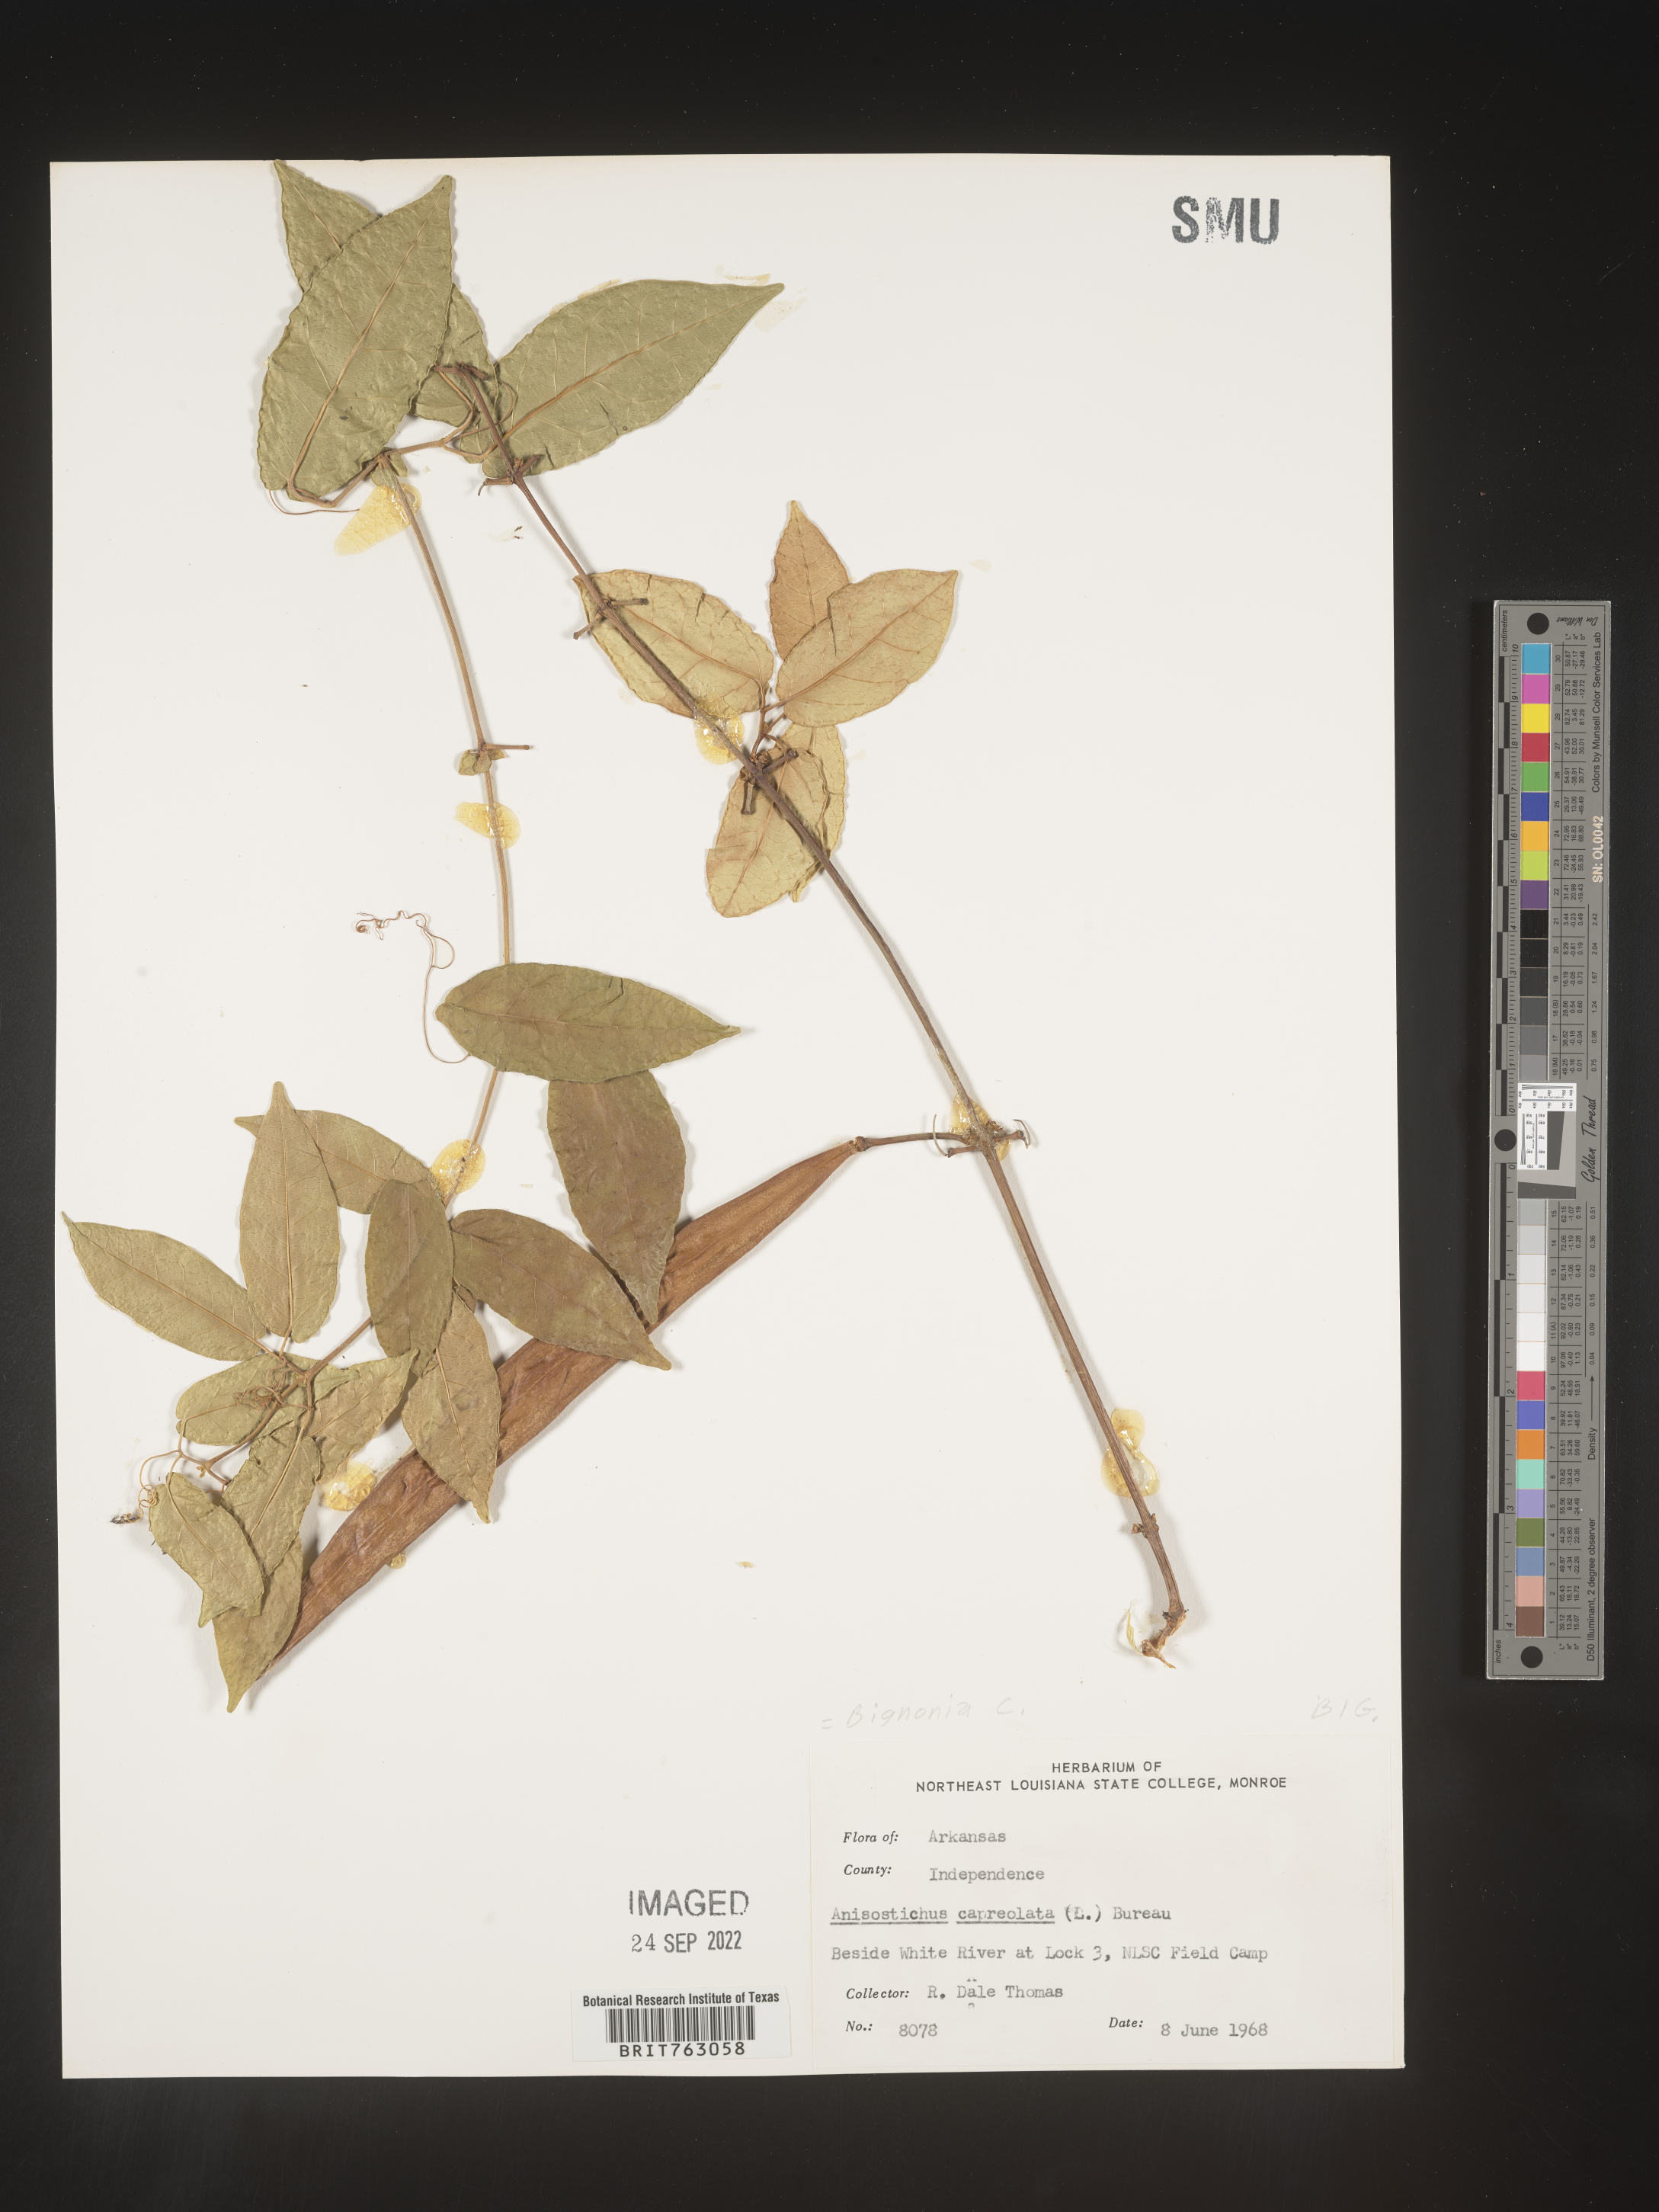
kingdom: Plantae
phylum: Tracheophyta
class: Magnoliopsida
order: Lamiales
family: Bignoniaceae
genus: Bignonia
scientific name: Bignonia capreolata
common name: Crossvine
